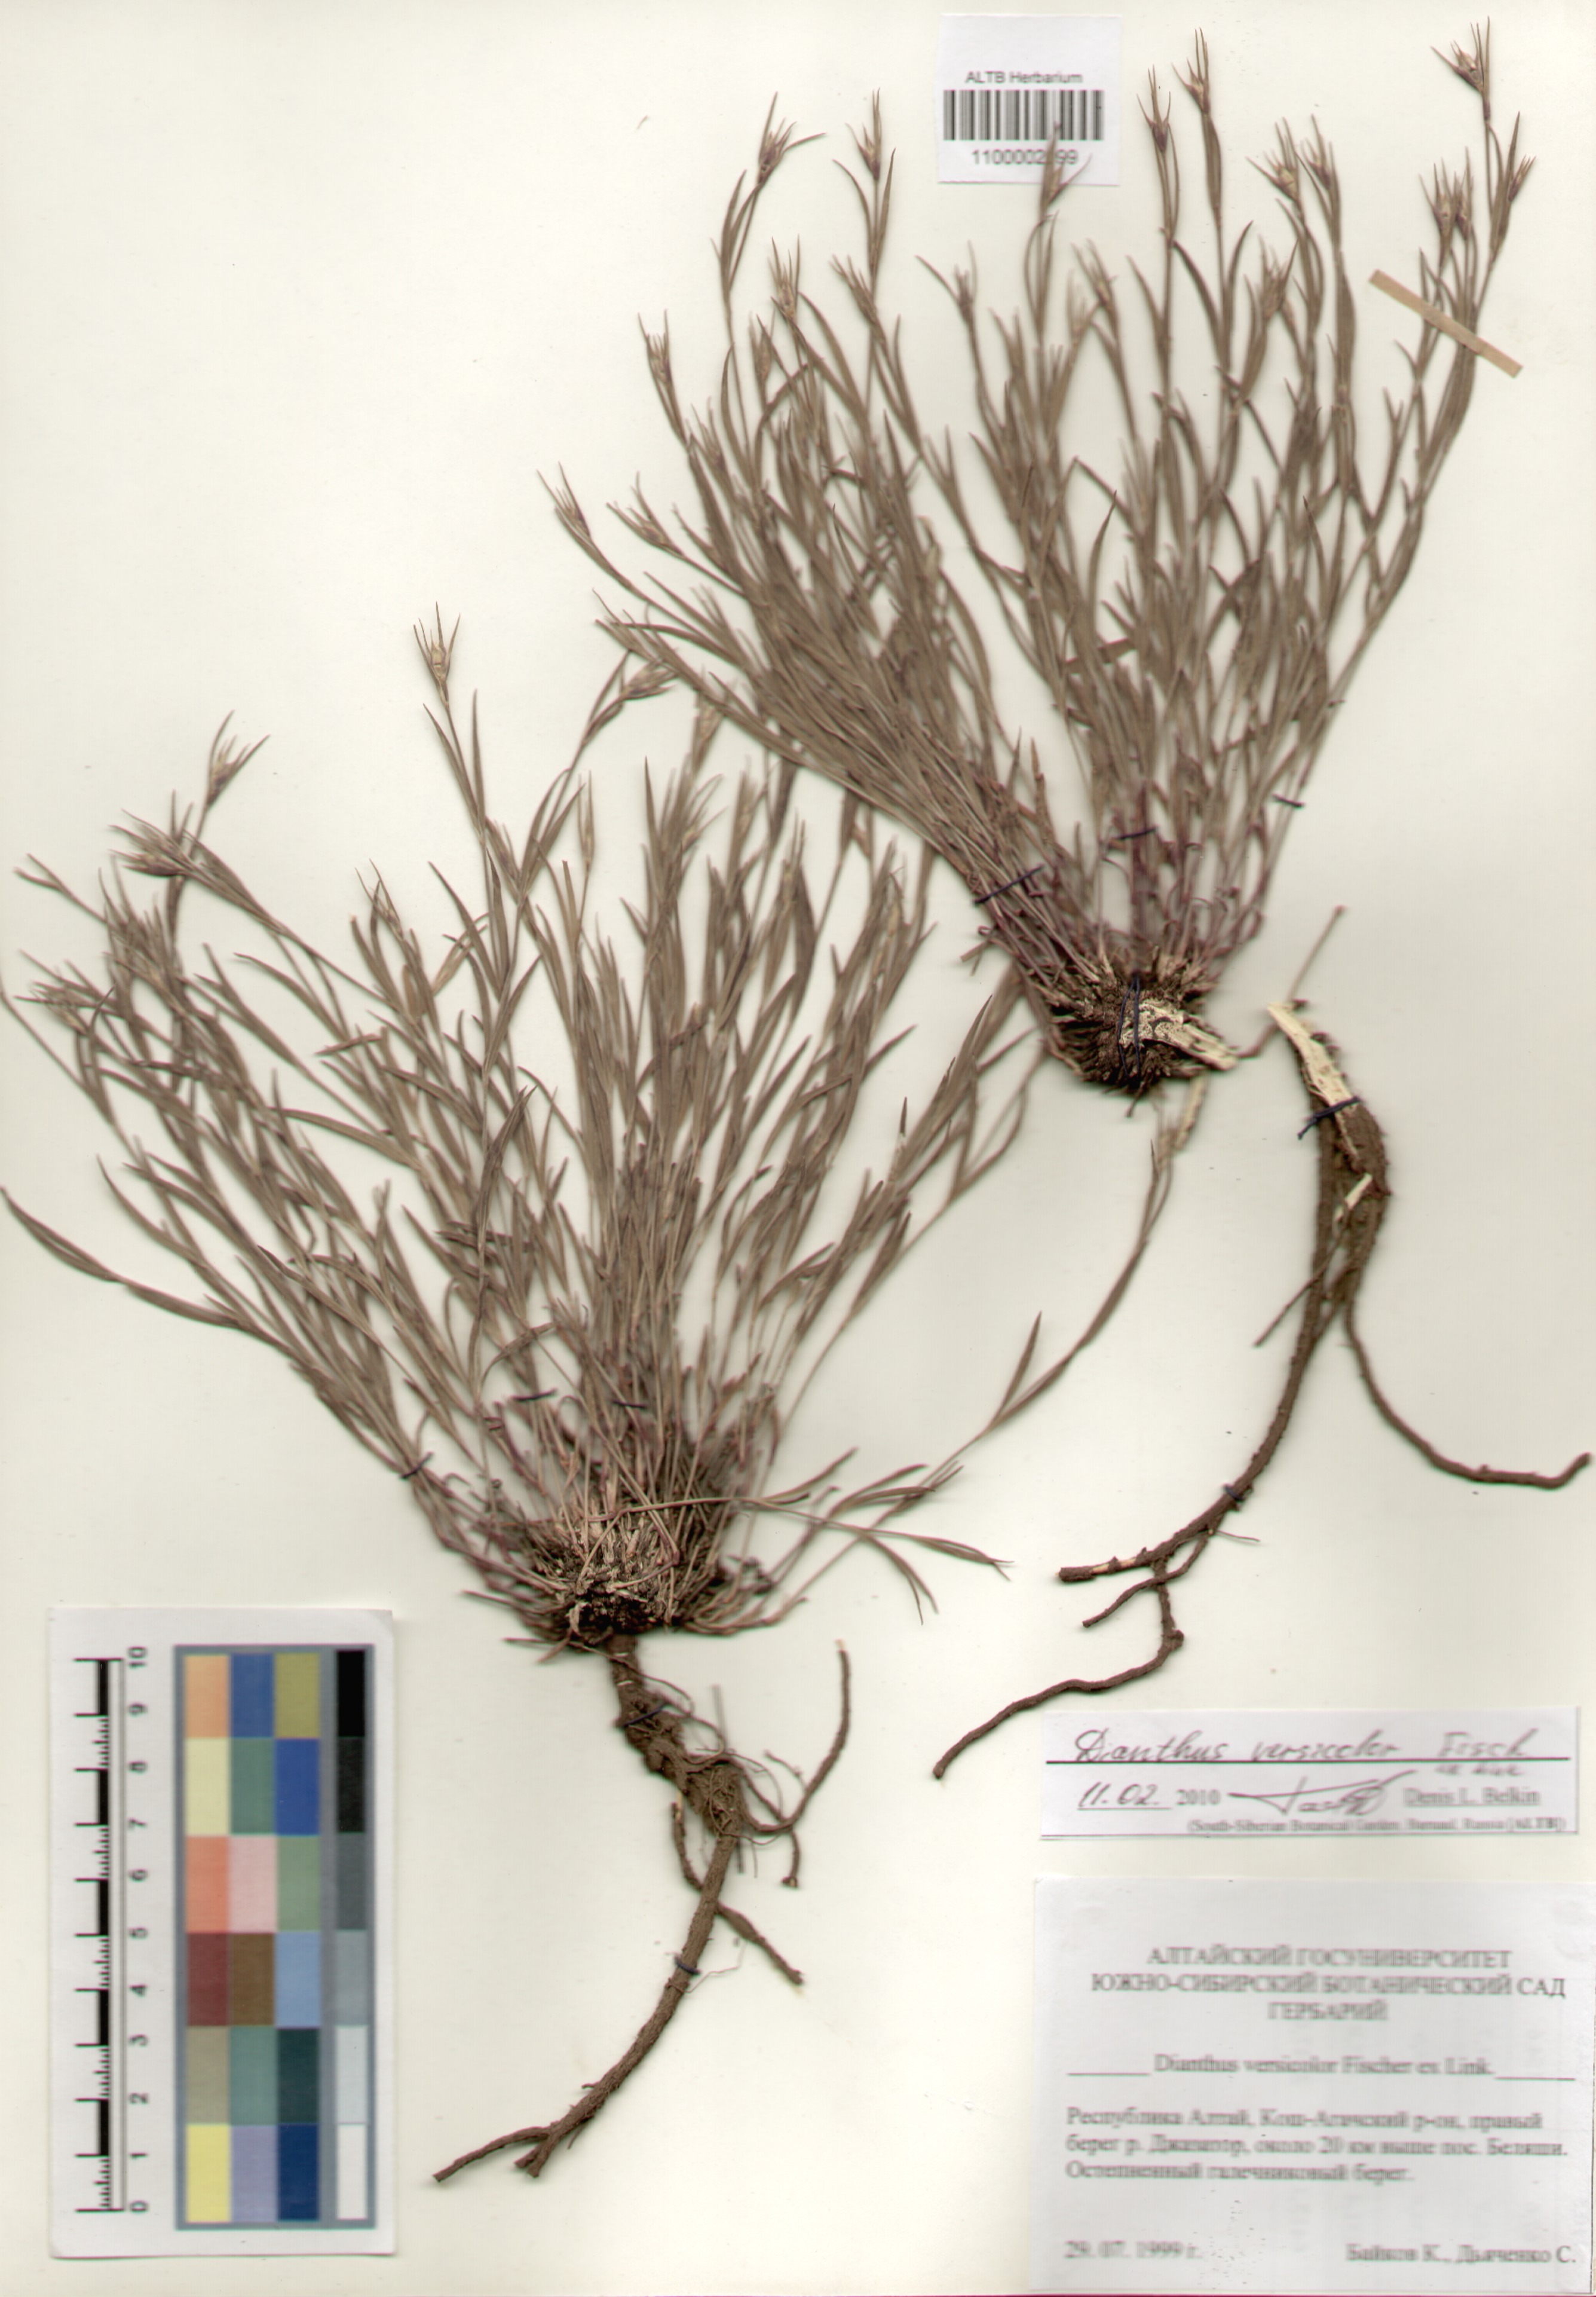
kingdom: Plantae
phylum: Tracheophyta
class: Magnoliopsida
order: Caryophyllales
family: Caryophyllaceae
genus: Dianthus
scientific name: Dianthus chinensis
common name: Rainbow pink
